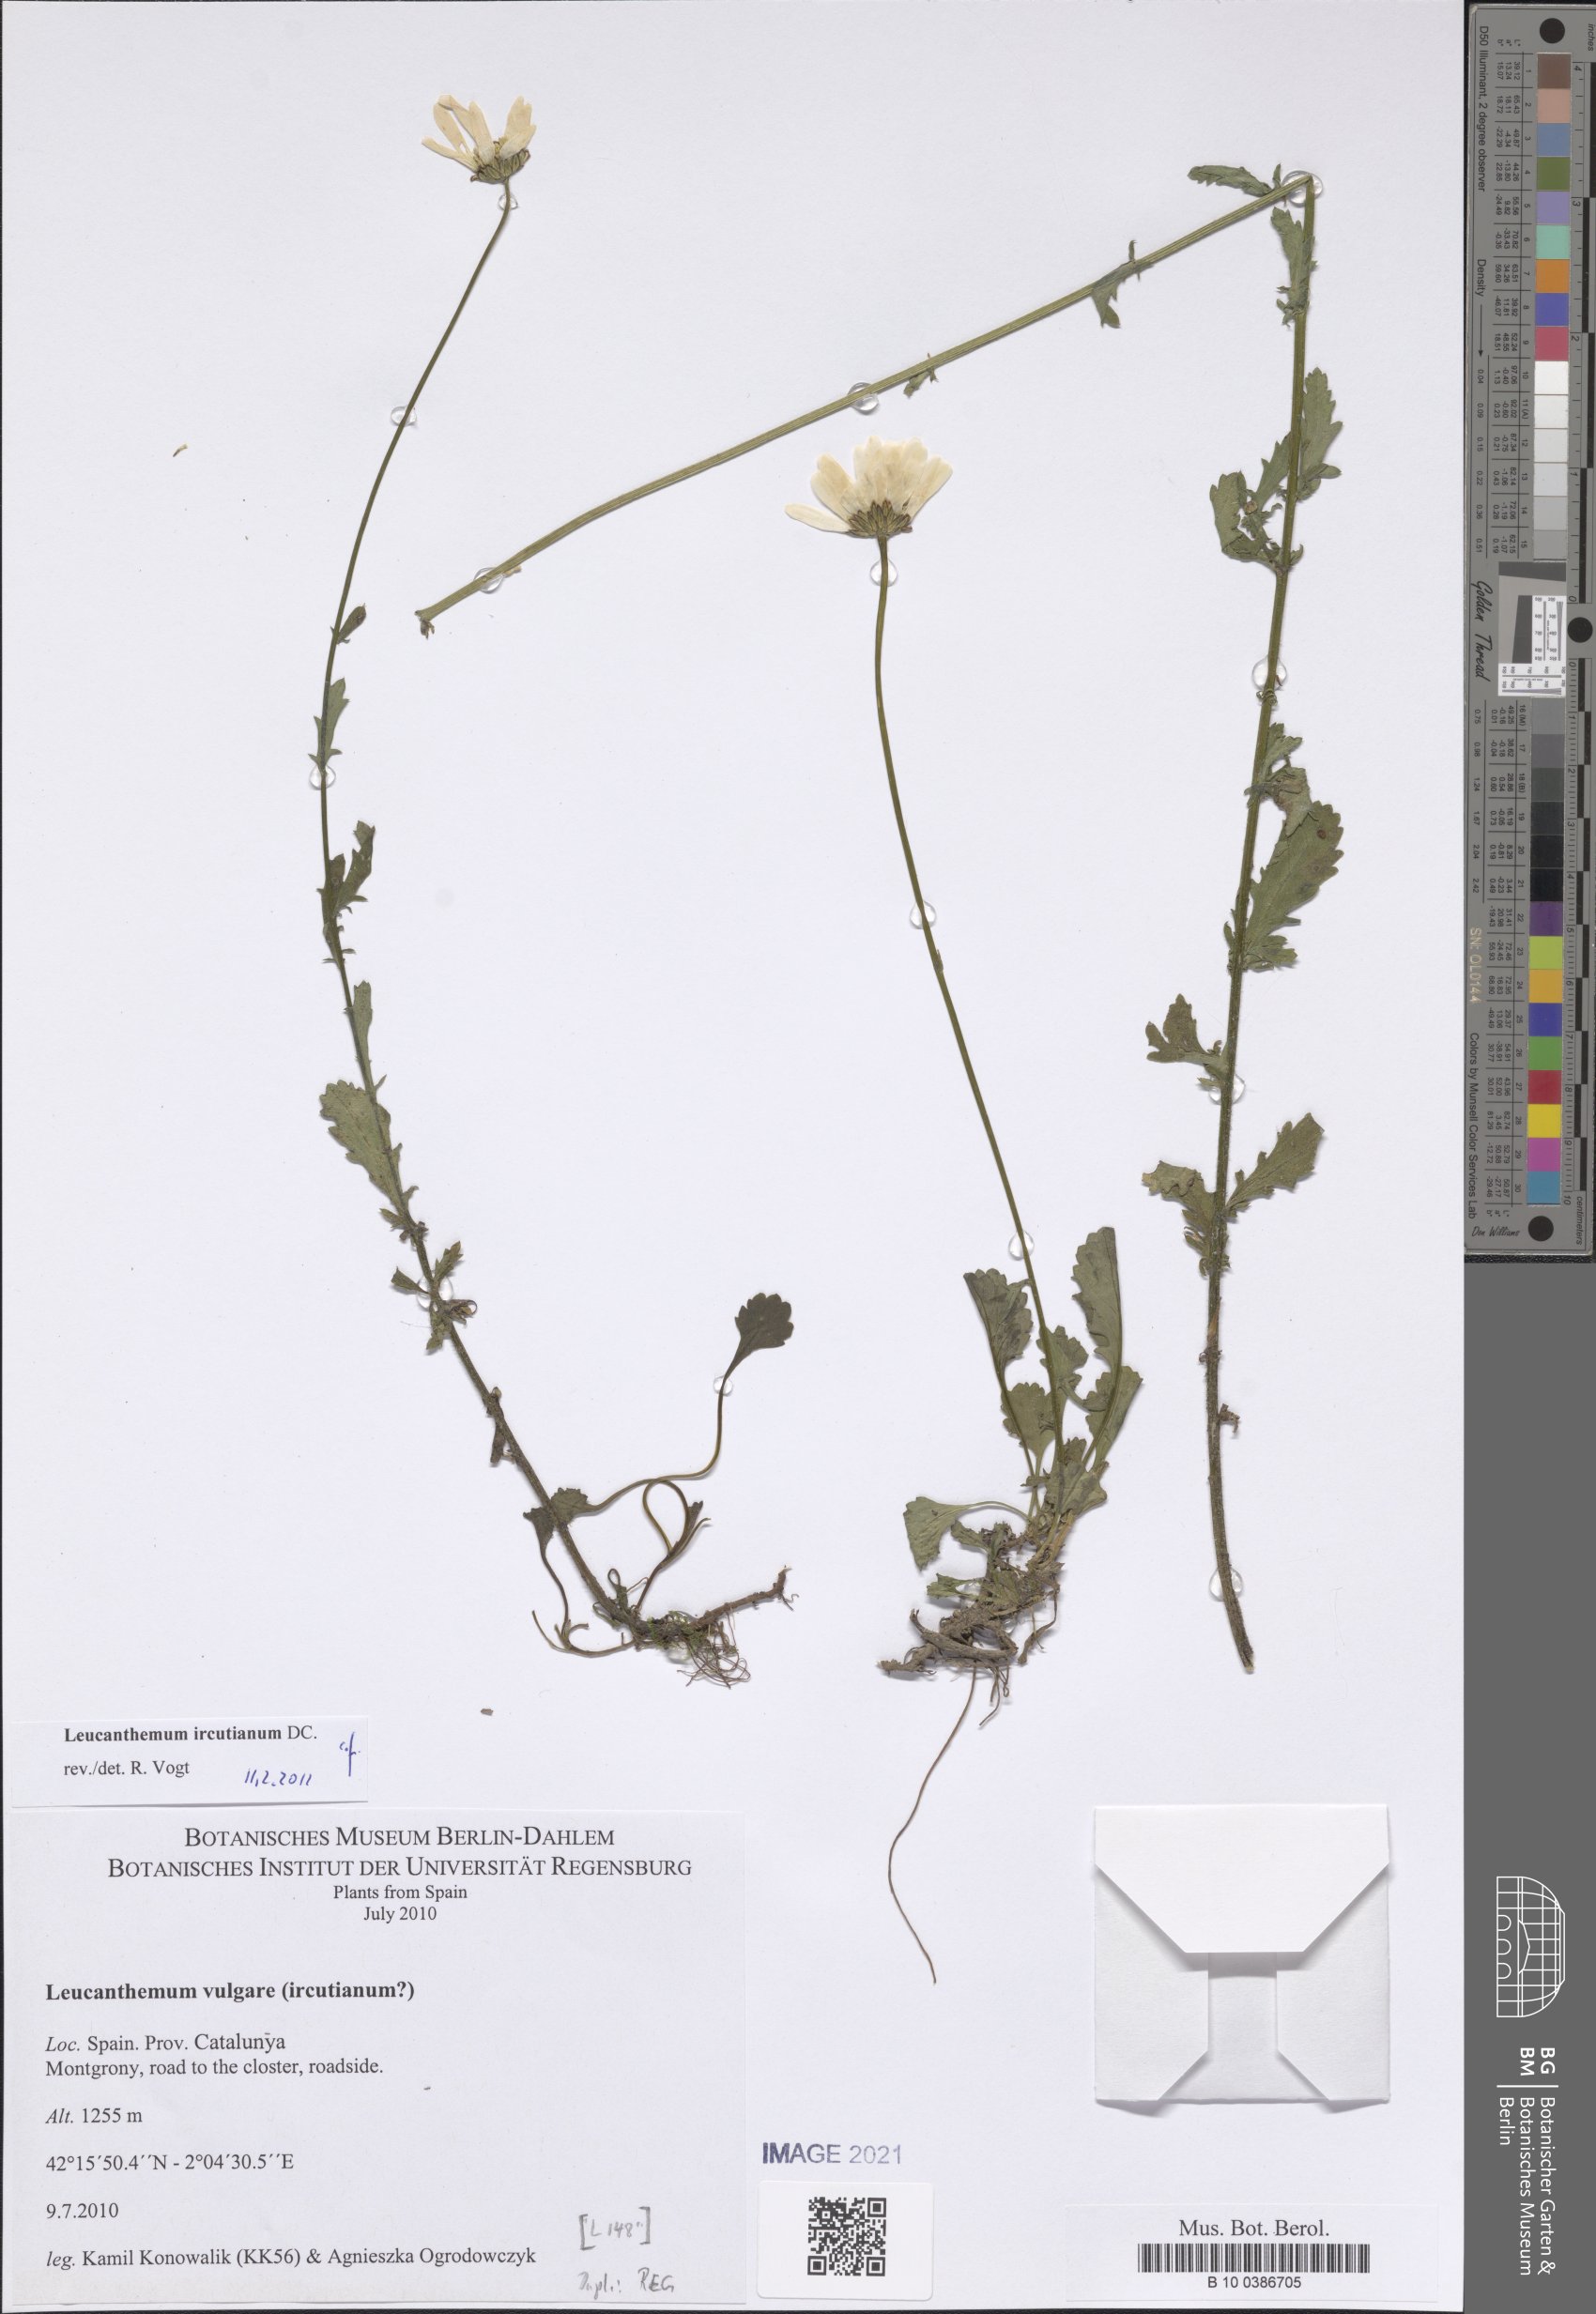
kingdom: Plantae
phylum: Tracheophyta
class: Magnoliopsida
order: Asterales
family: Asteraceae
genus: Leucanthemum
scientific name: Leucanthemum ircutianum
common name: Daisy
